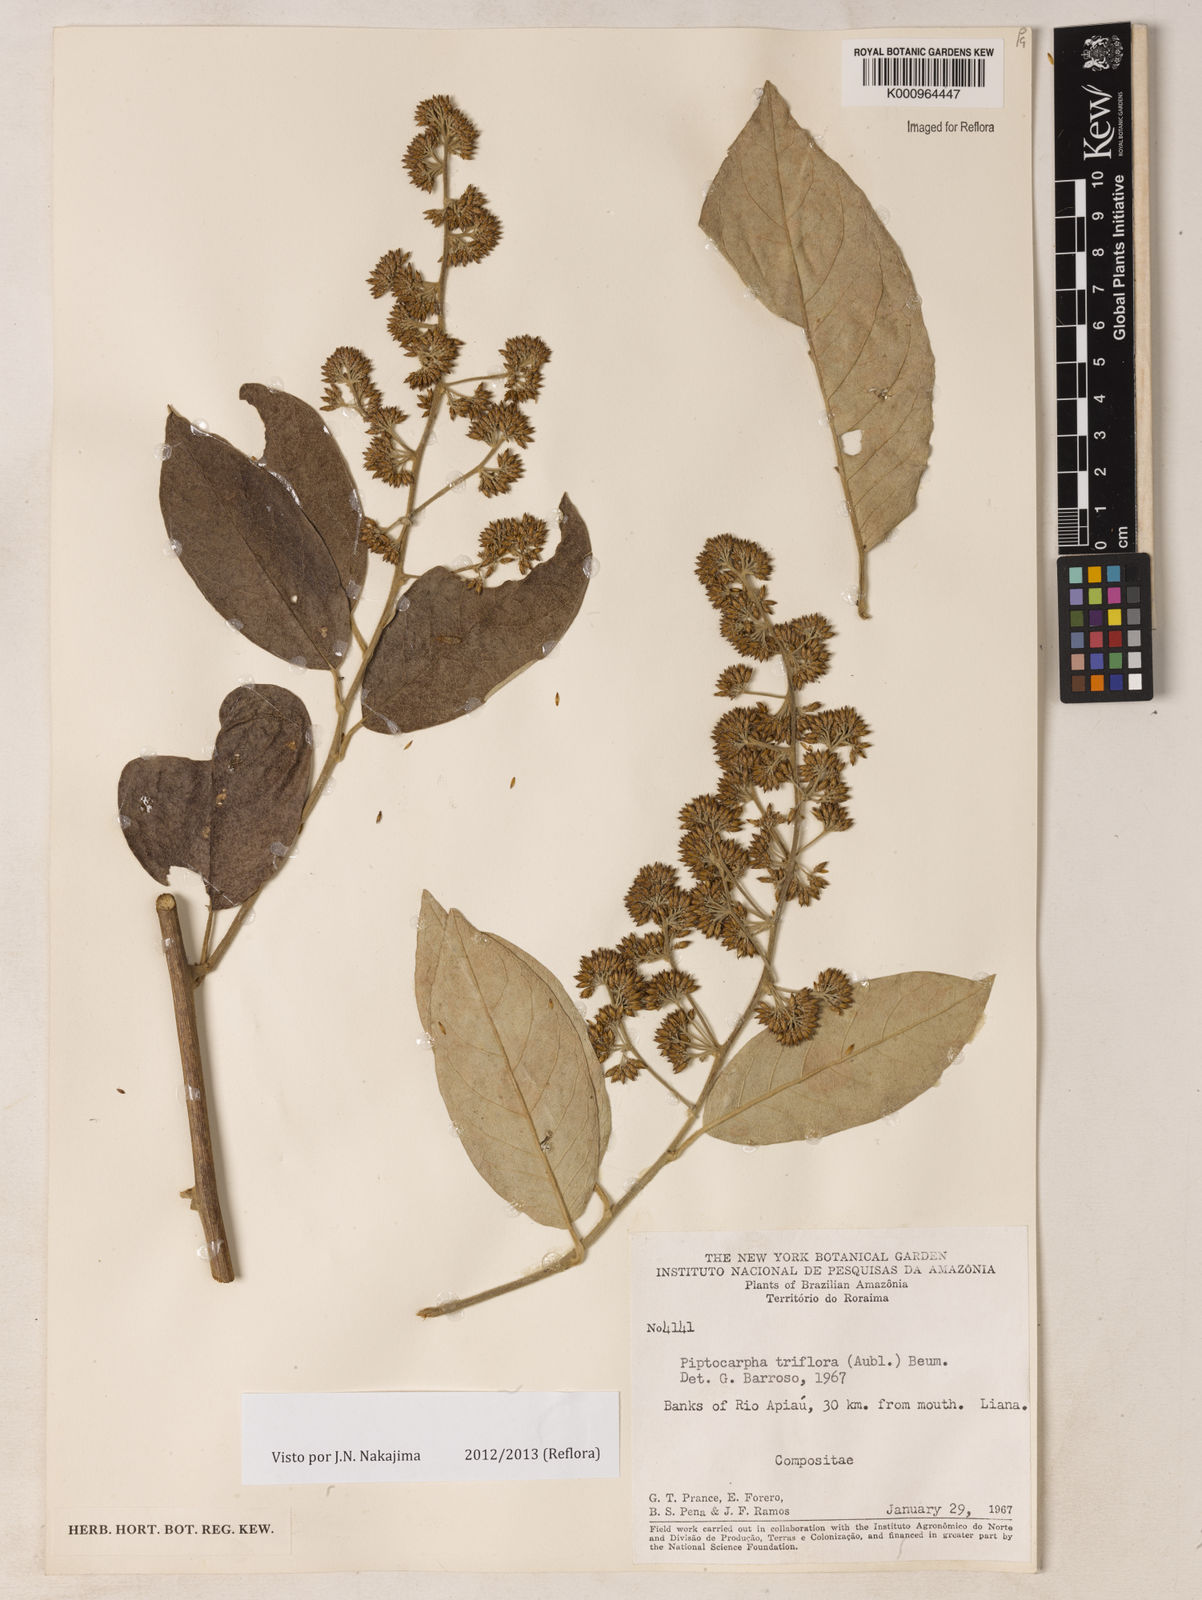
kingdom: Plantae
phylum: Tracheophyta
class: Magnoliopsida
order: Asterales
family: Asteraceae
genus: Piptocarpha
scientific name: Piptocarpha triflora
